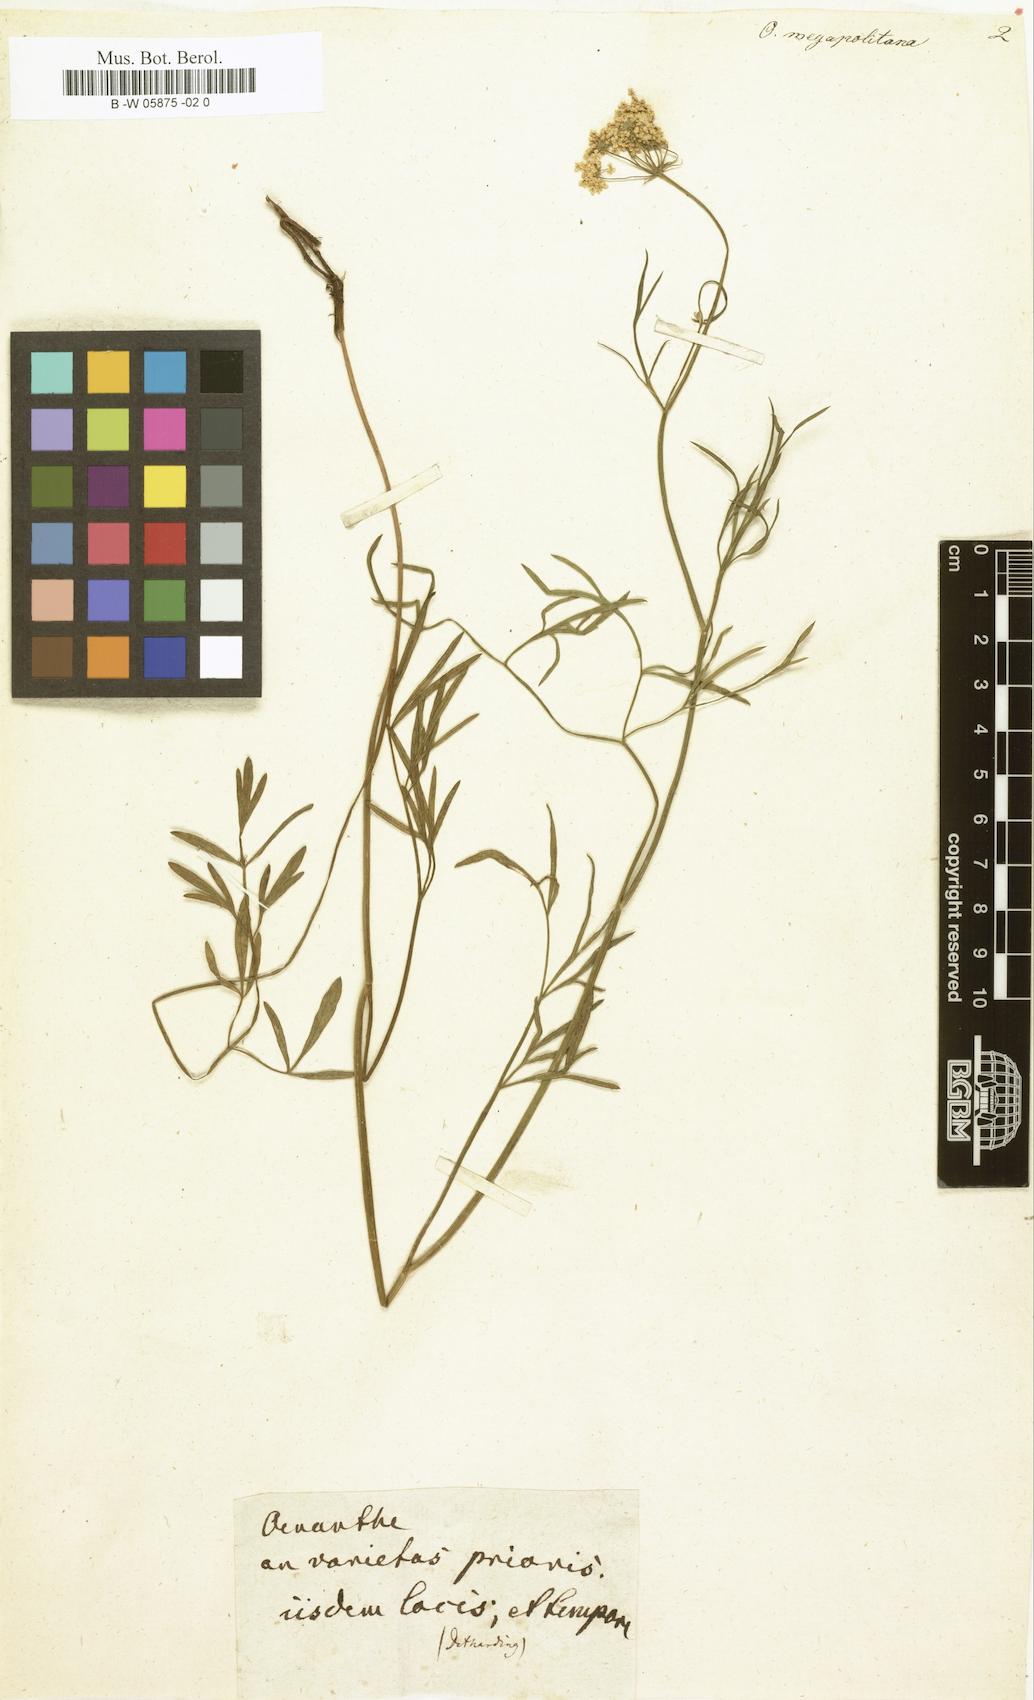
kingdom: Plantae
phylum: Tracheophyta
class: Magnoliopsida
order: Apiales
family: Apiaceae
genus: Oenanthe
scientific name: Oenanthe lachenalii
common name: Parsley water-dropwort
